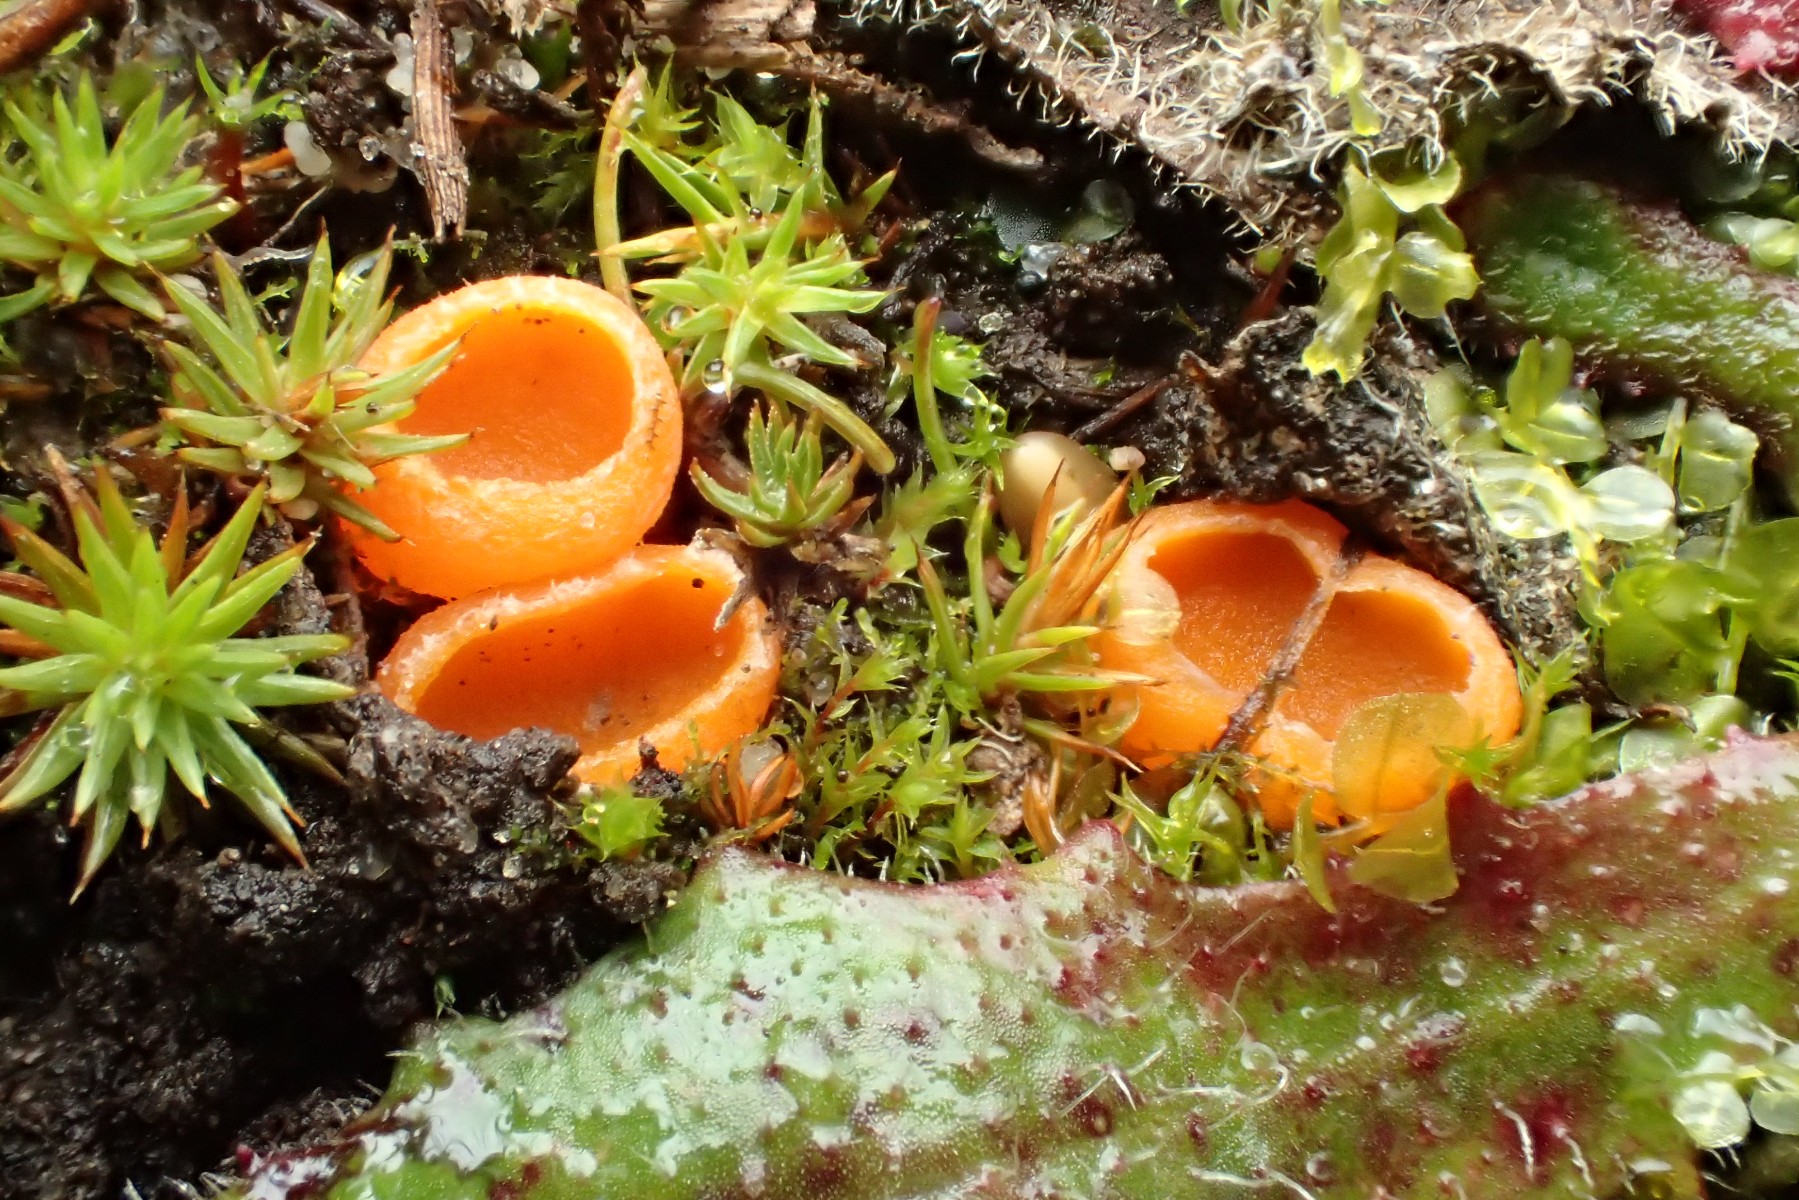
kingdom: Fungi
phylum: Ascomycota
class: Pezizomycetes
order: Pezizales
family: Pyronemataceae
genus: Neottiella
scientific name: Neottiella rutilans
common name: jomfruhår-mosbæger
